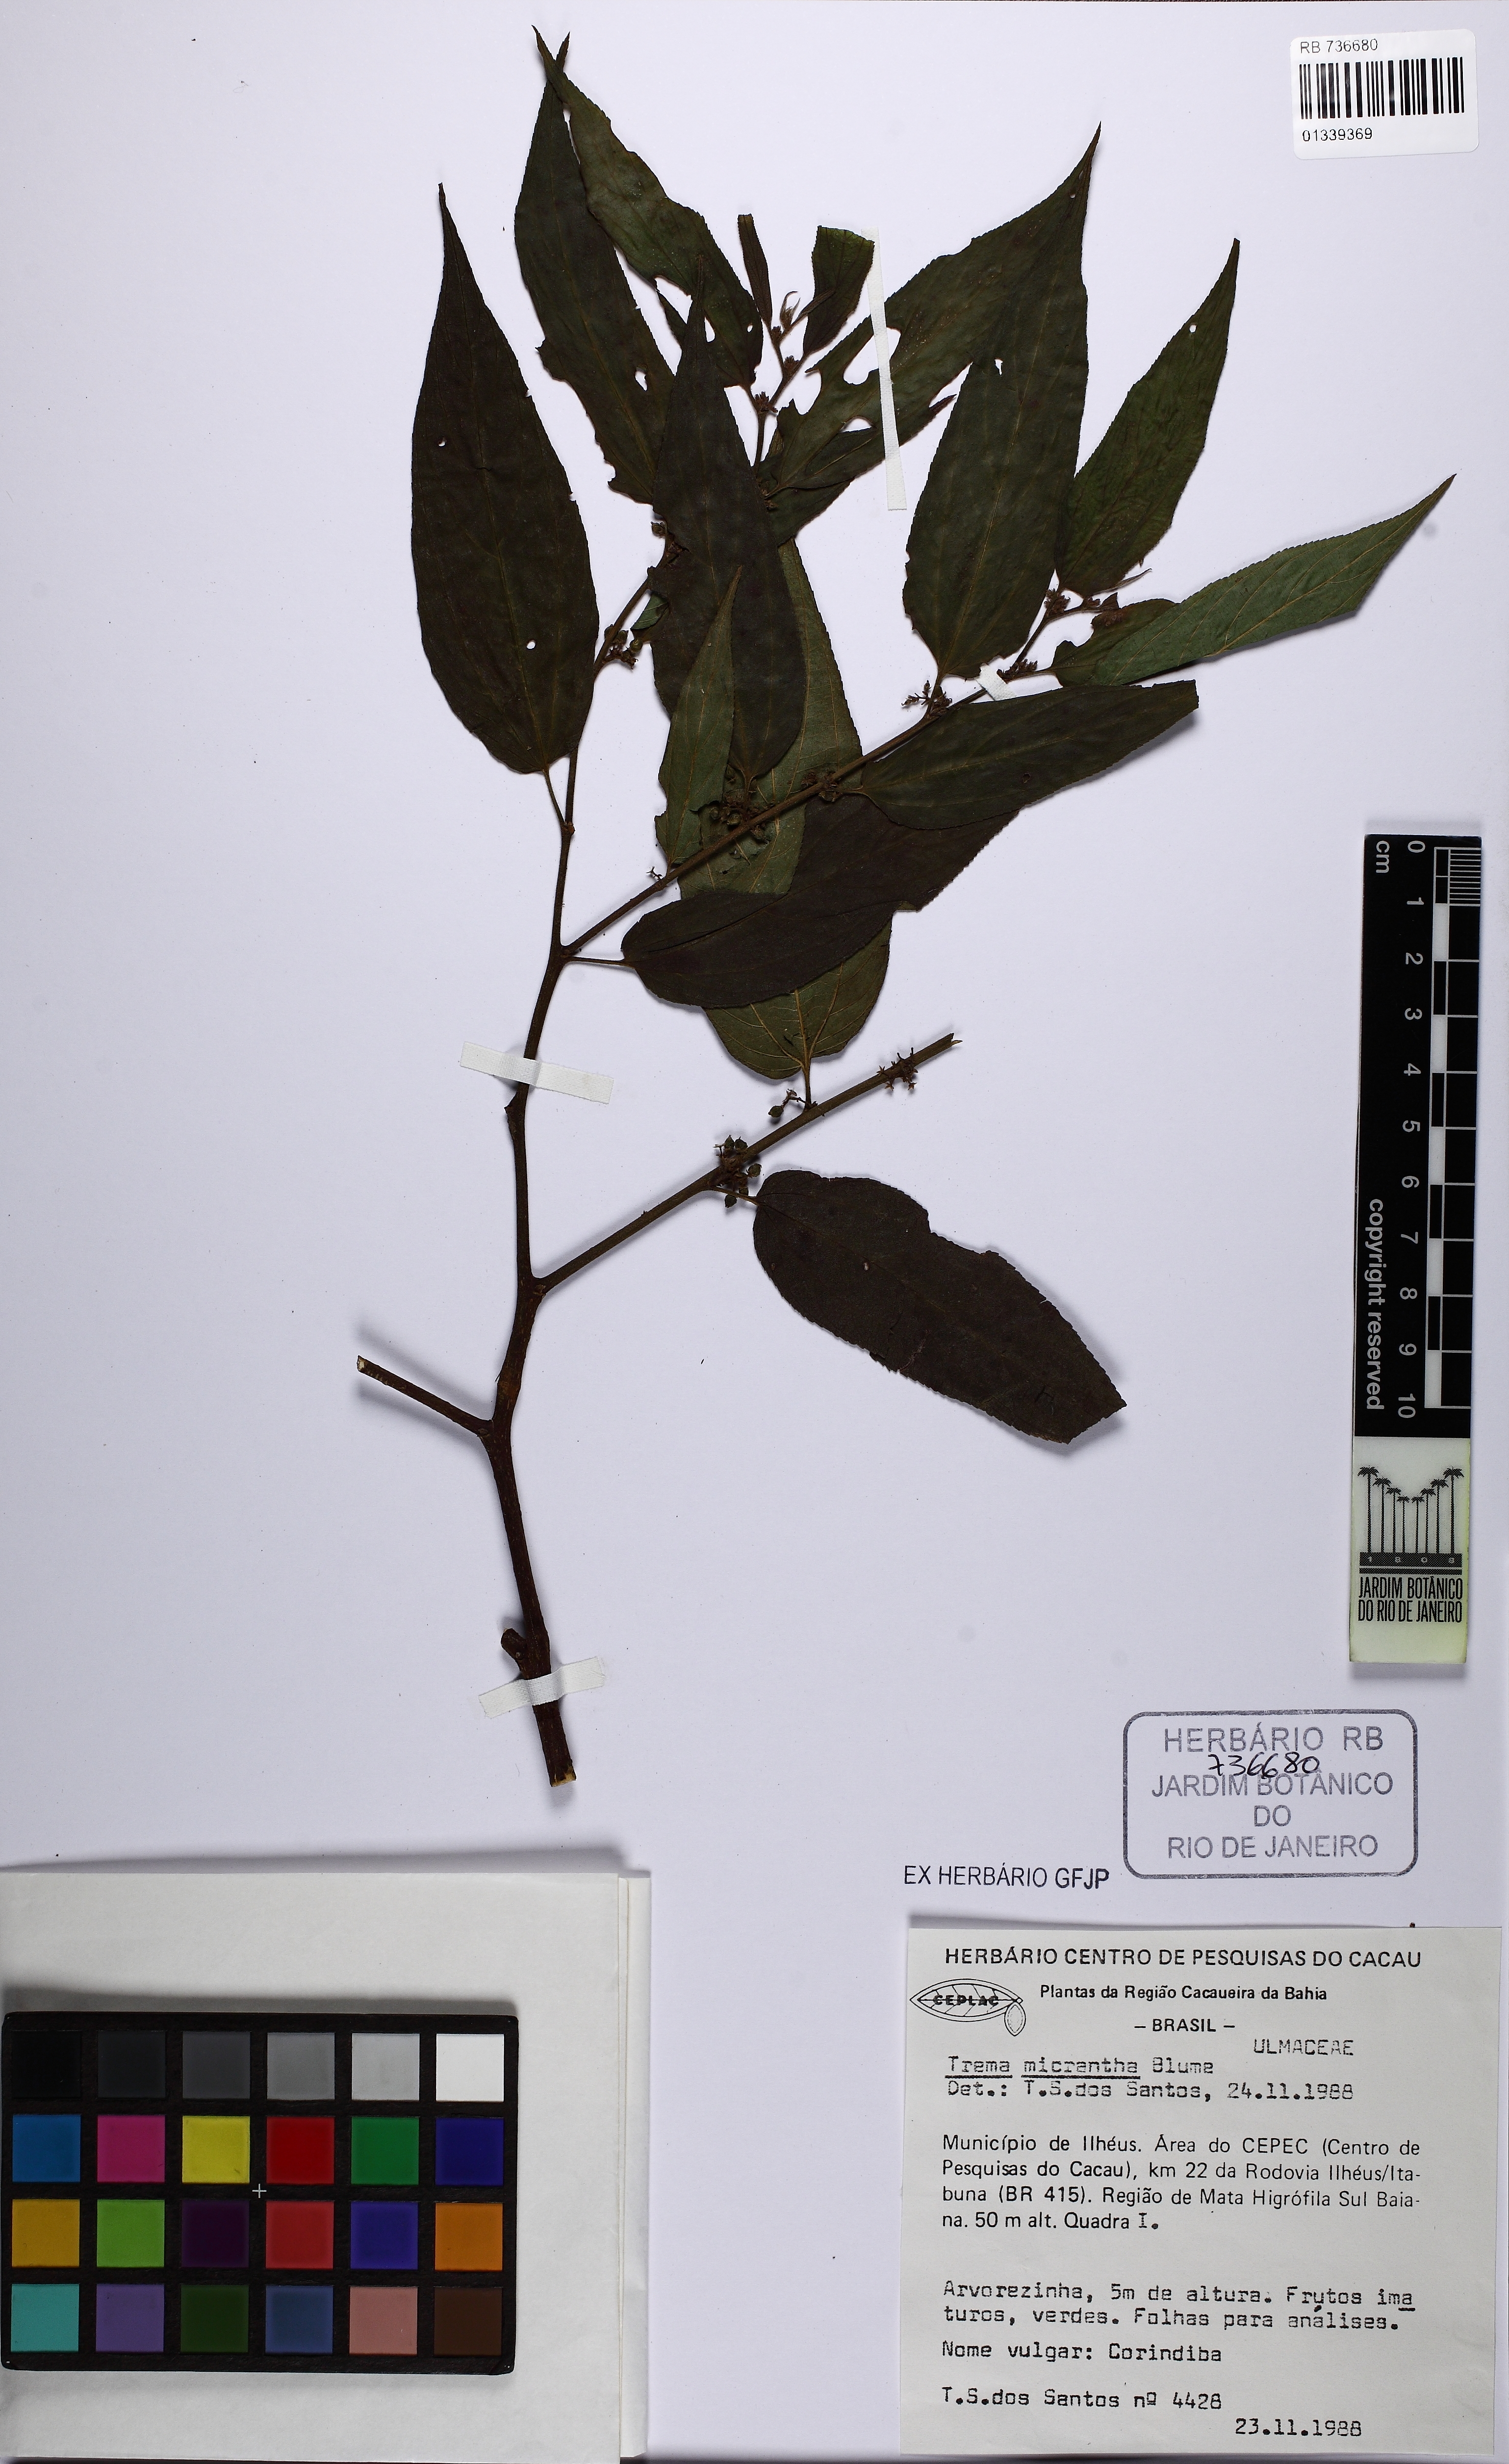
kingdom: Plantae
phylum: Tracheophyta
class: Magnoliopsida
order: Rosales
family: Cannabaceae
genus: Trema
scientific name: Trema micranthum
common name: Jamaican nettletree
